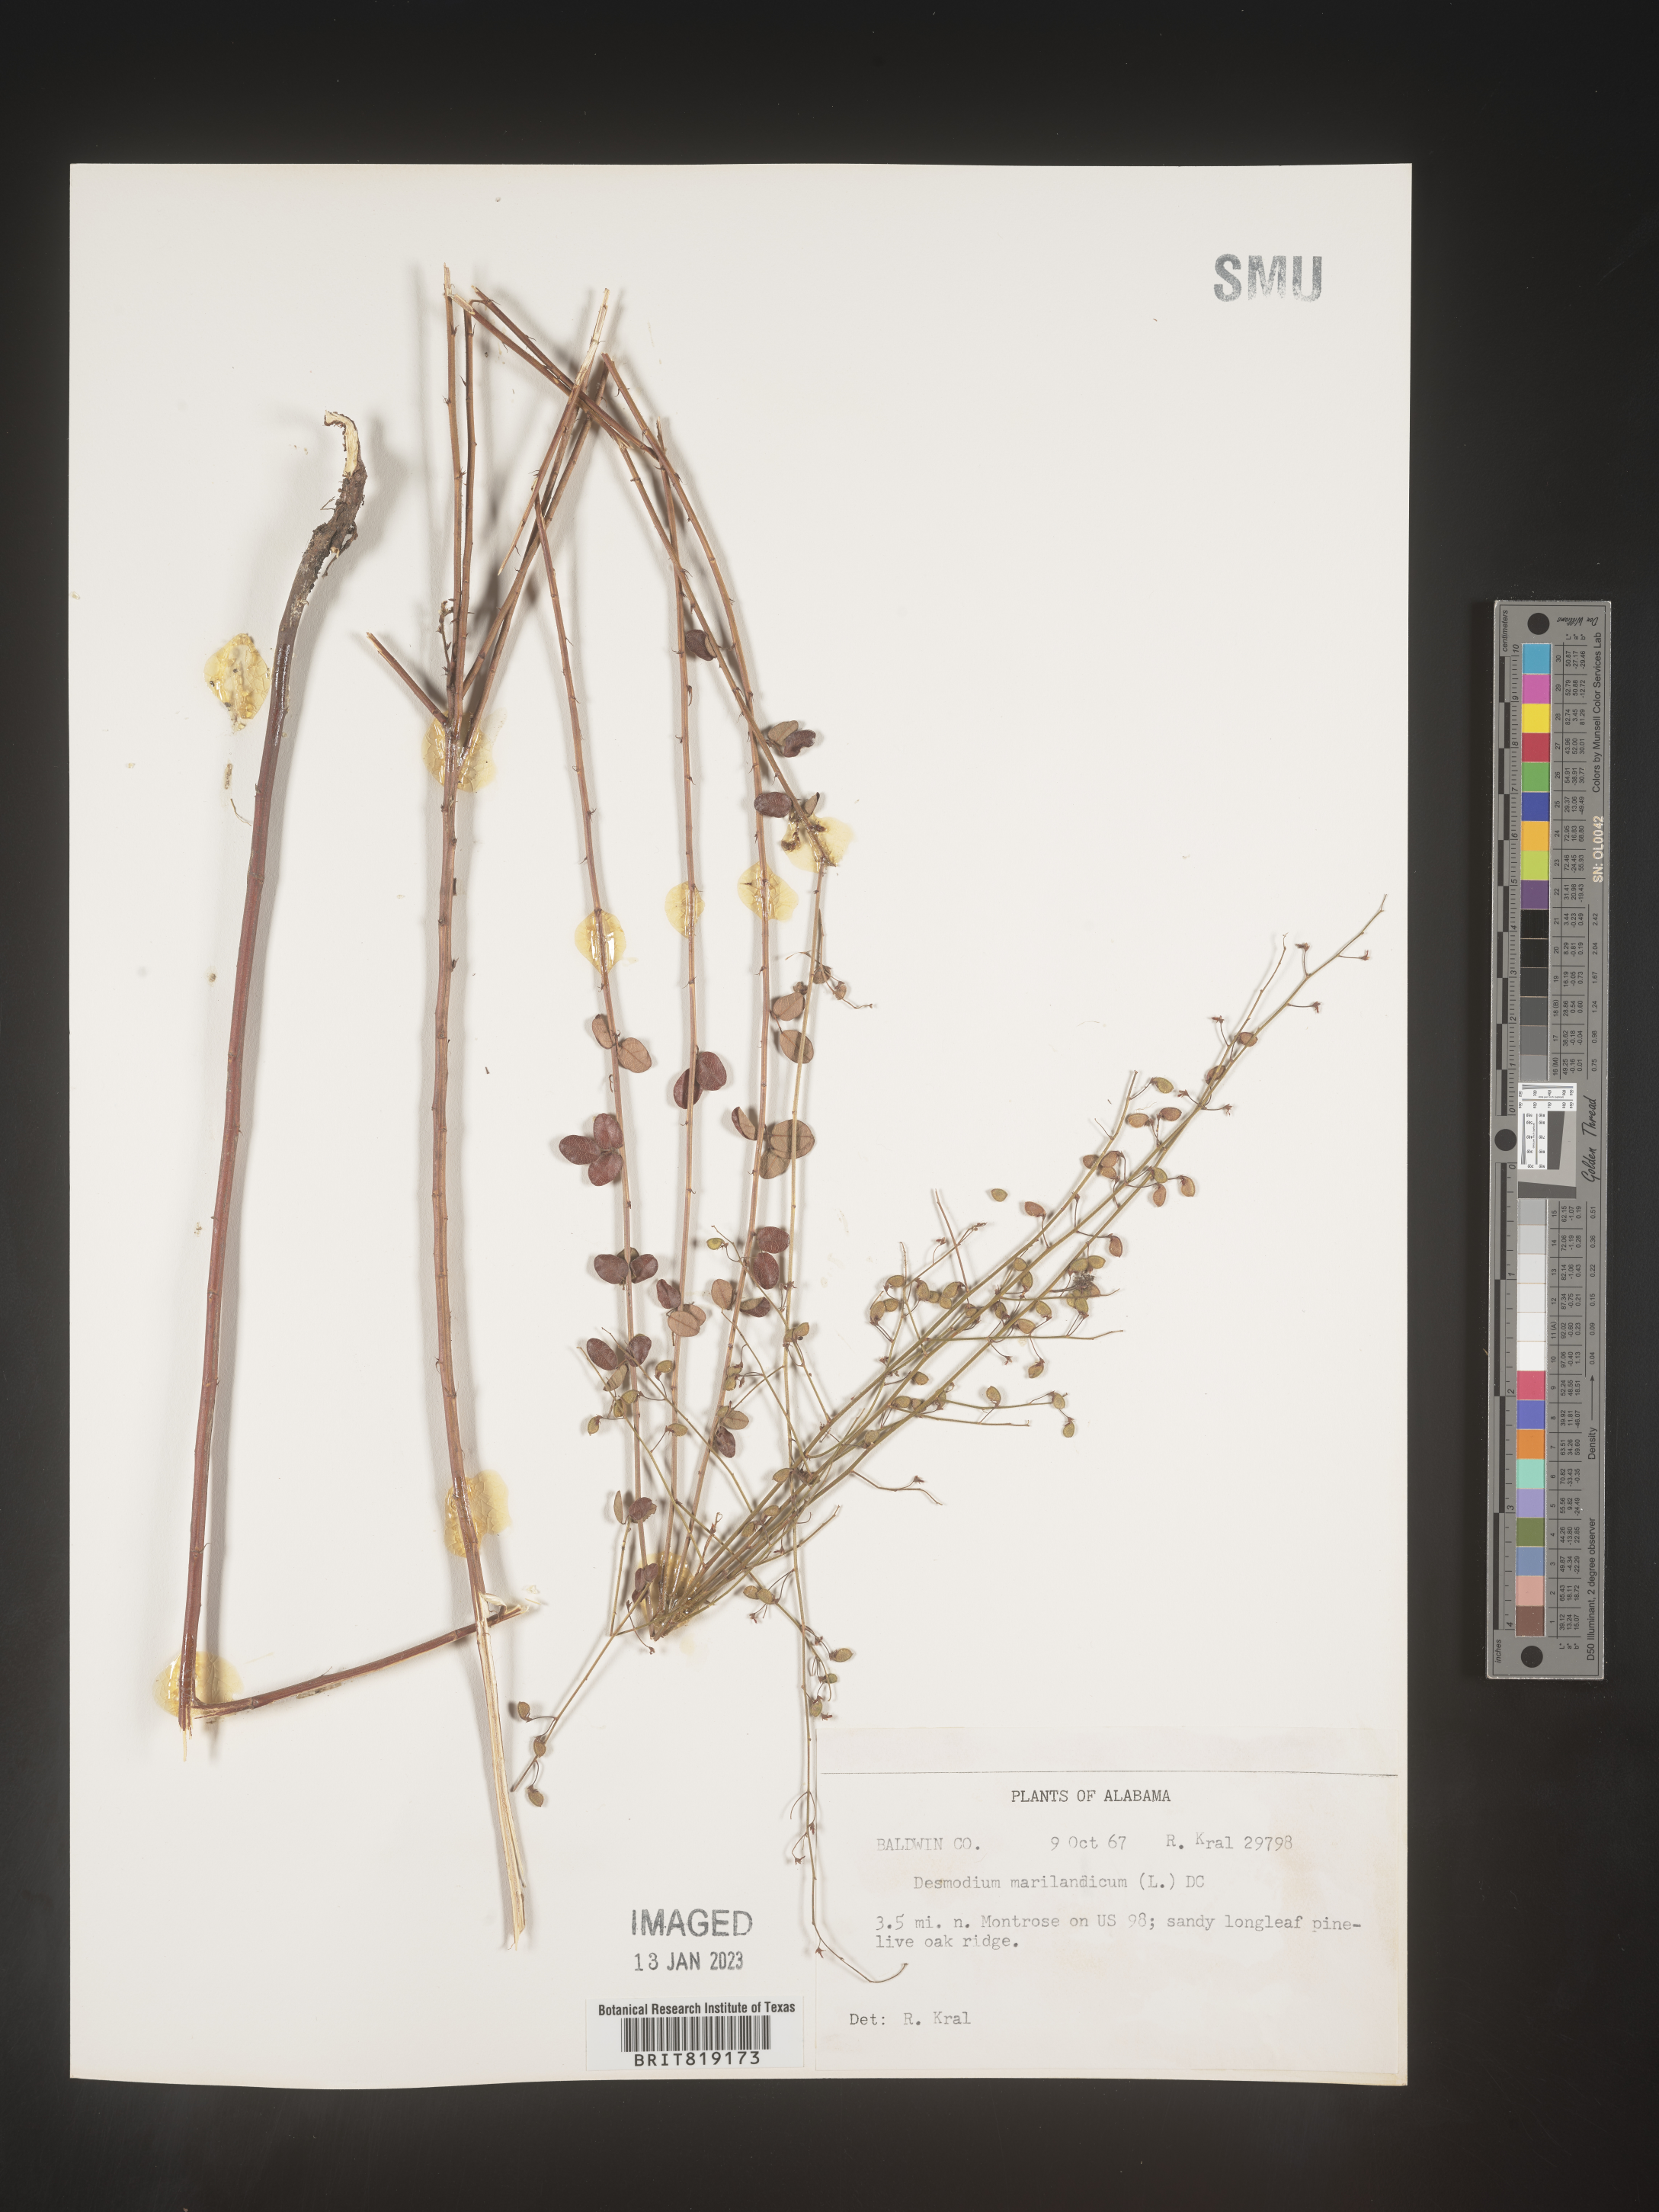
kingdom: Plantae
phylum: Tracheophyta
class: Magnoliopsida
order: Fabales
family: Fabaceae
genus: Desmodium
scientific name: Desmodium marilandicum
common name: Maryland tick-trefoil
